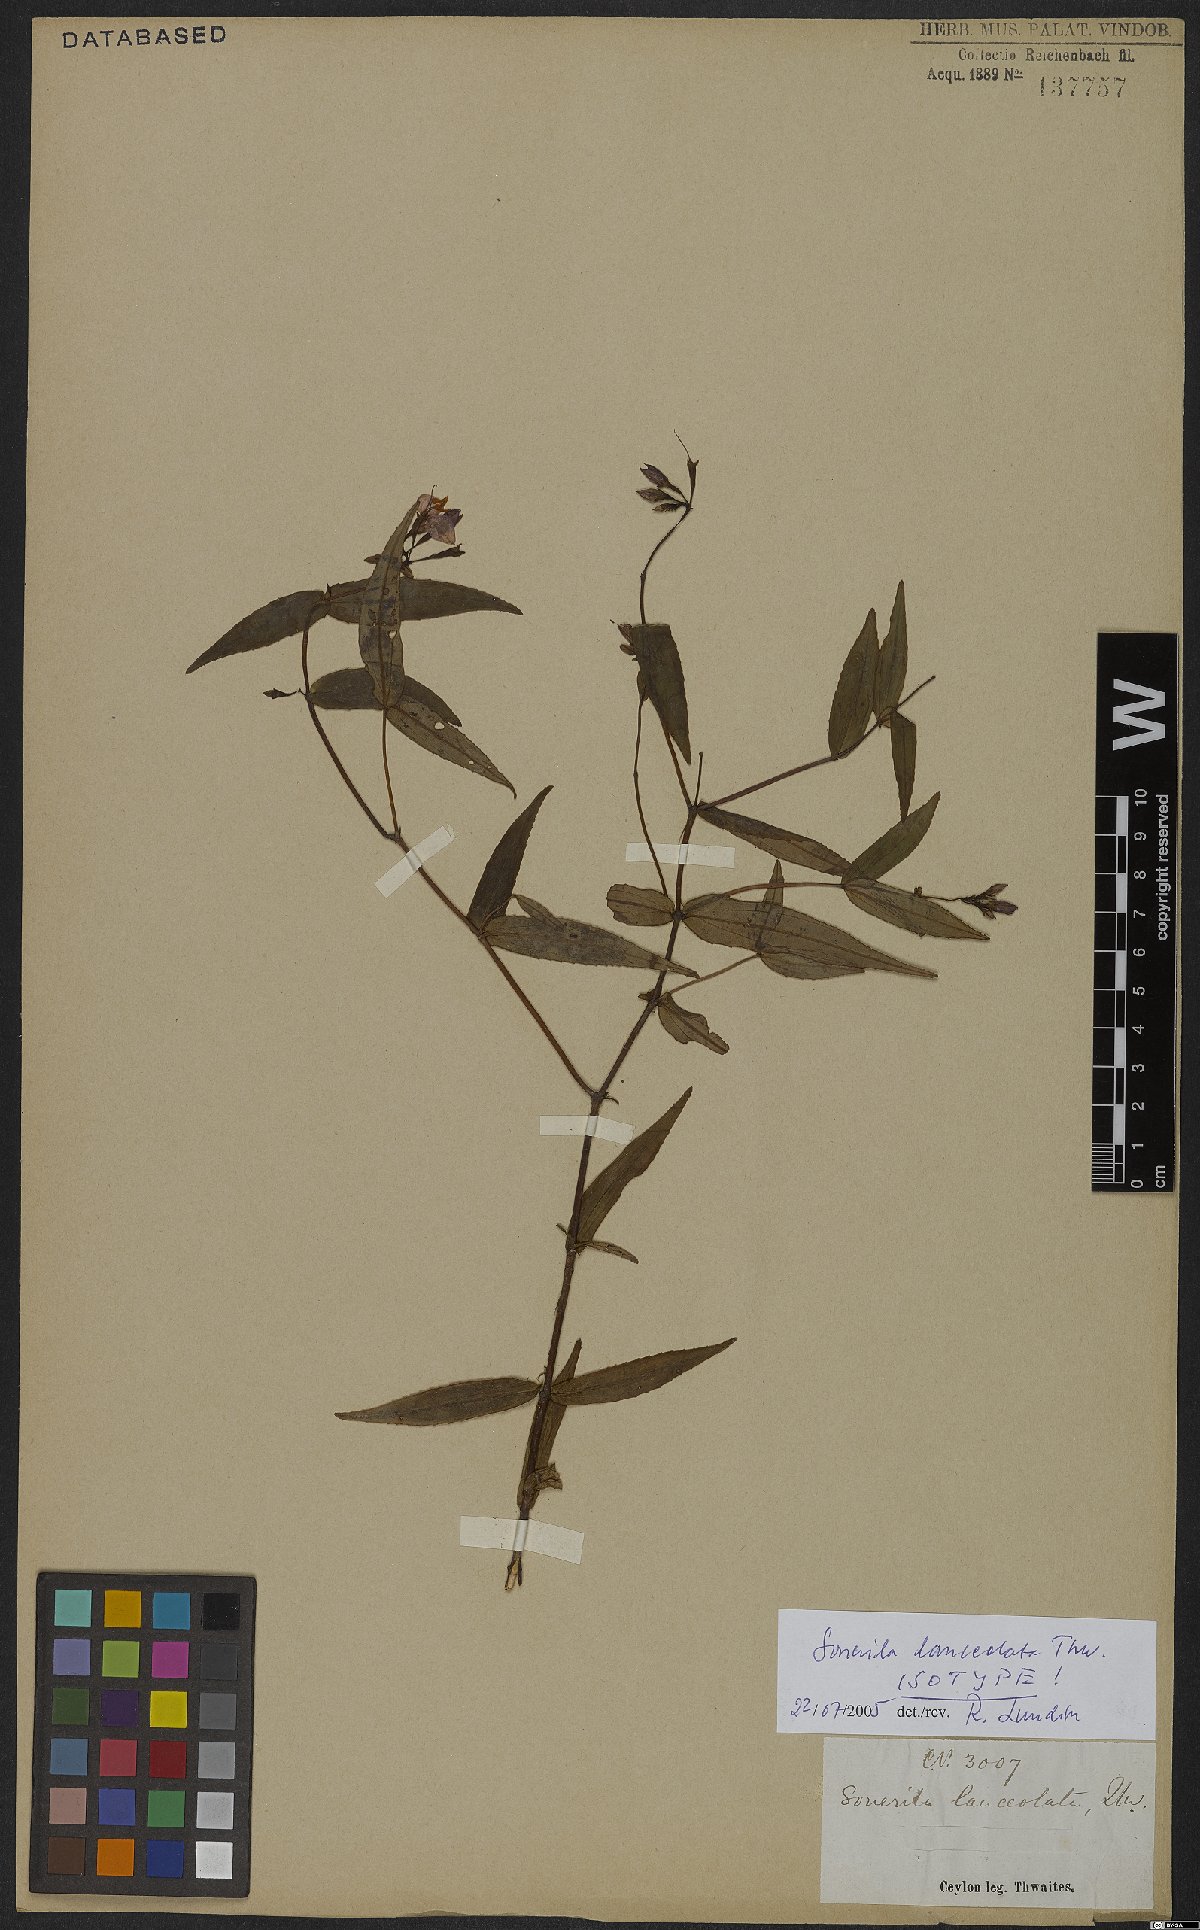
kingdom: Plantae
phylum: Tracheophyta
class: Magnoliopsida
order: Myrtales
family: Melastomataceae
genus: Sonerila
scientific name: Sonerila lanceolata
